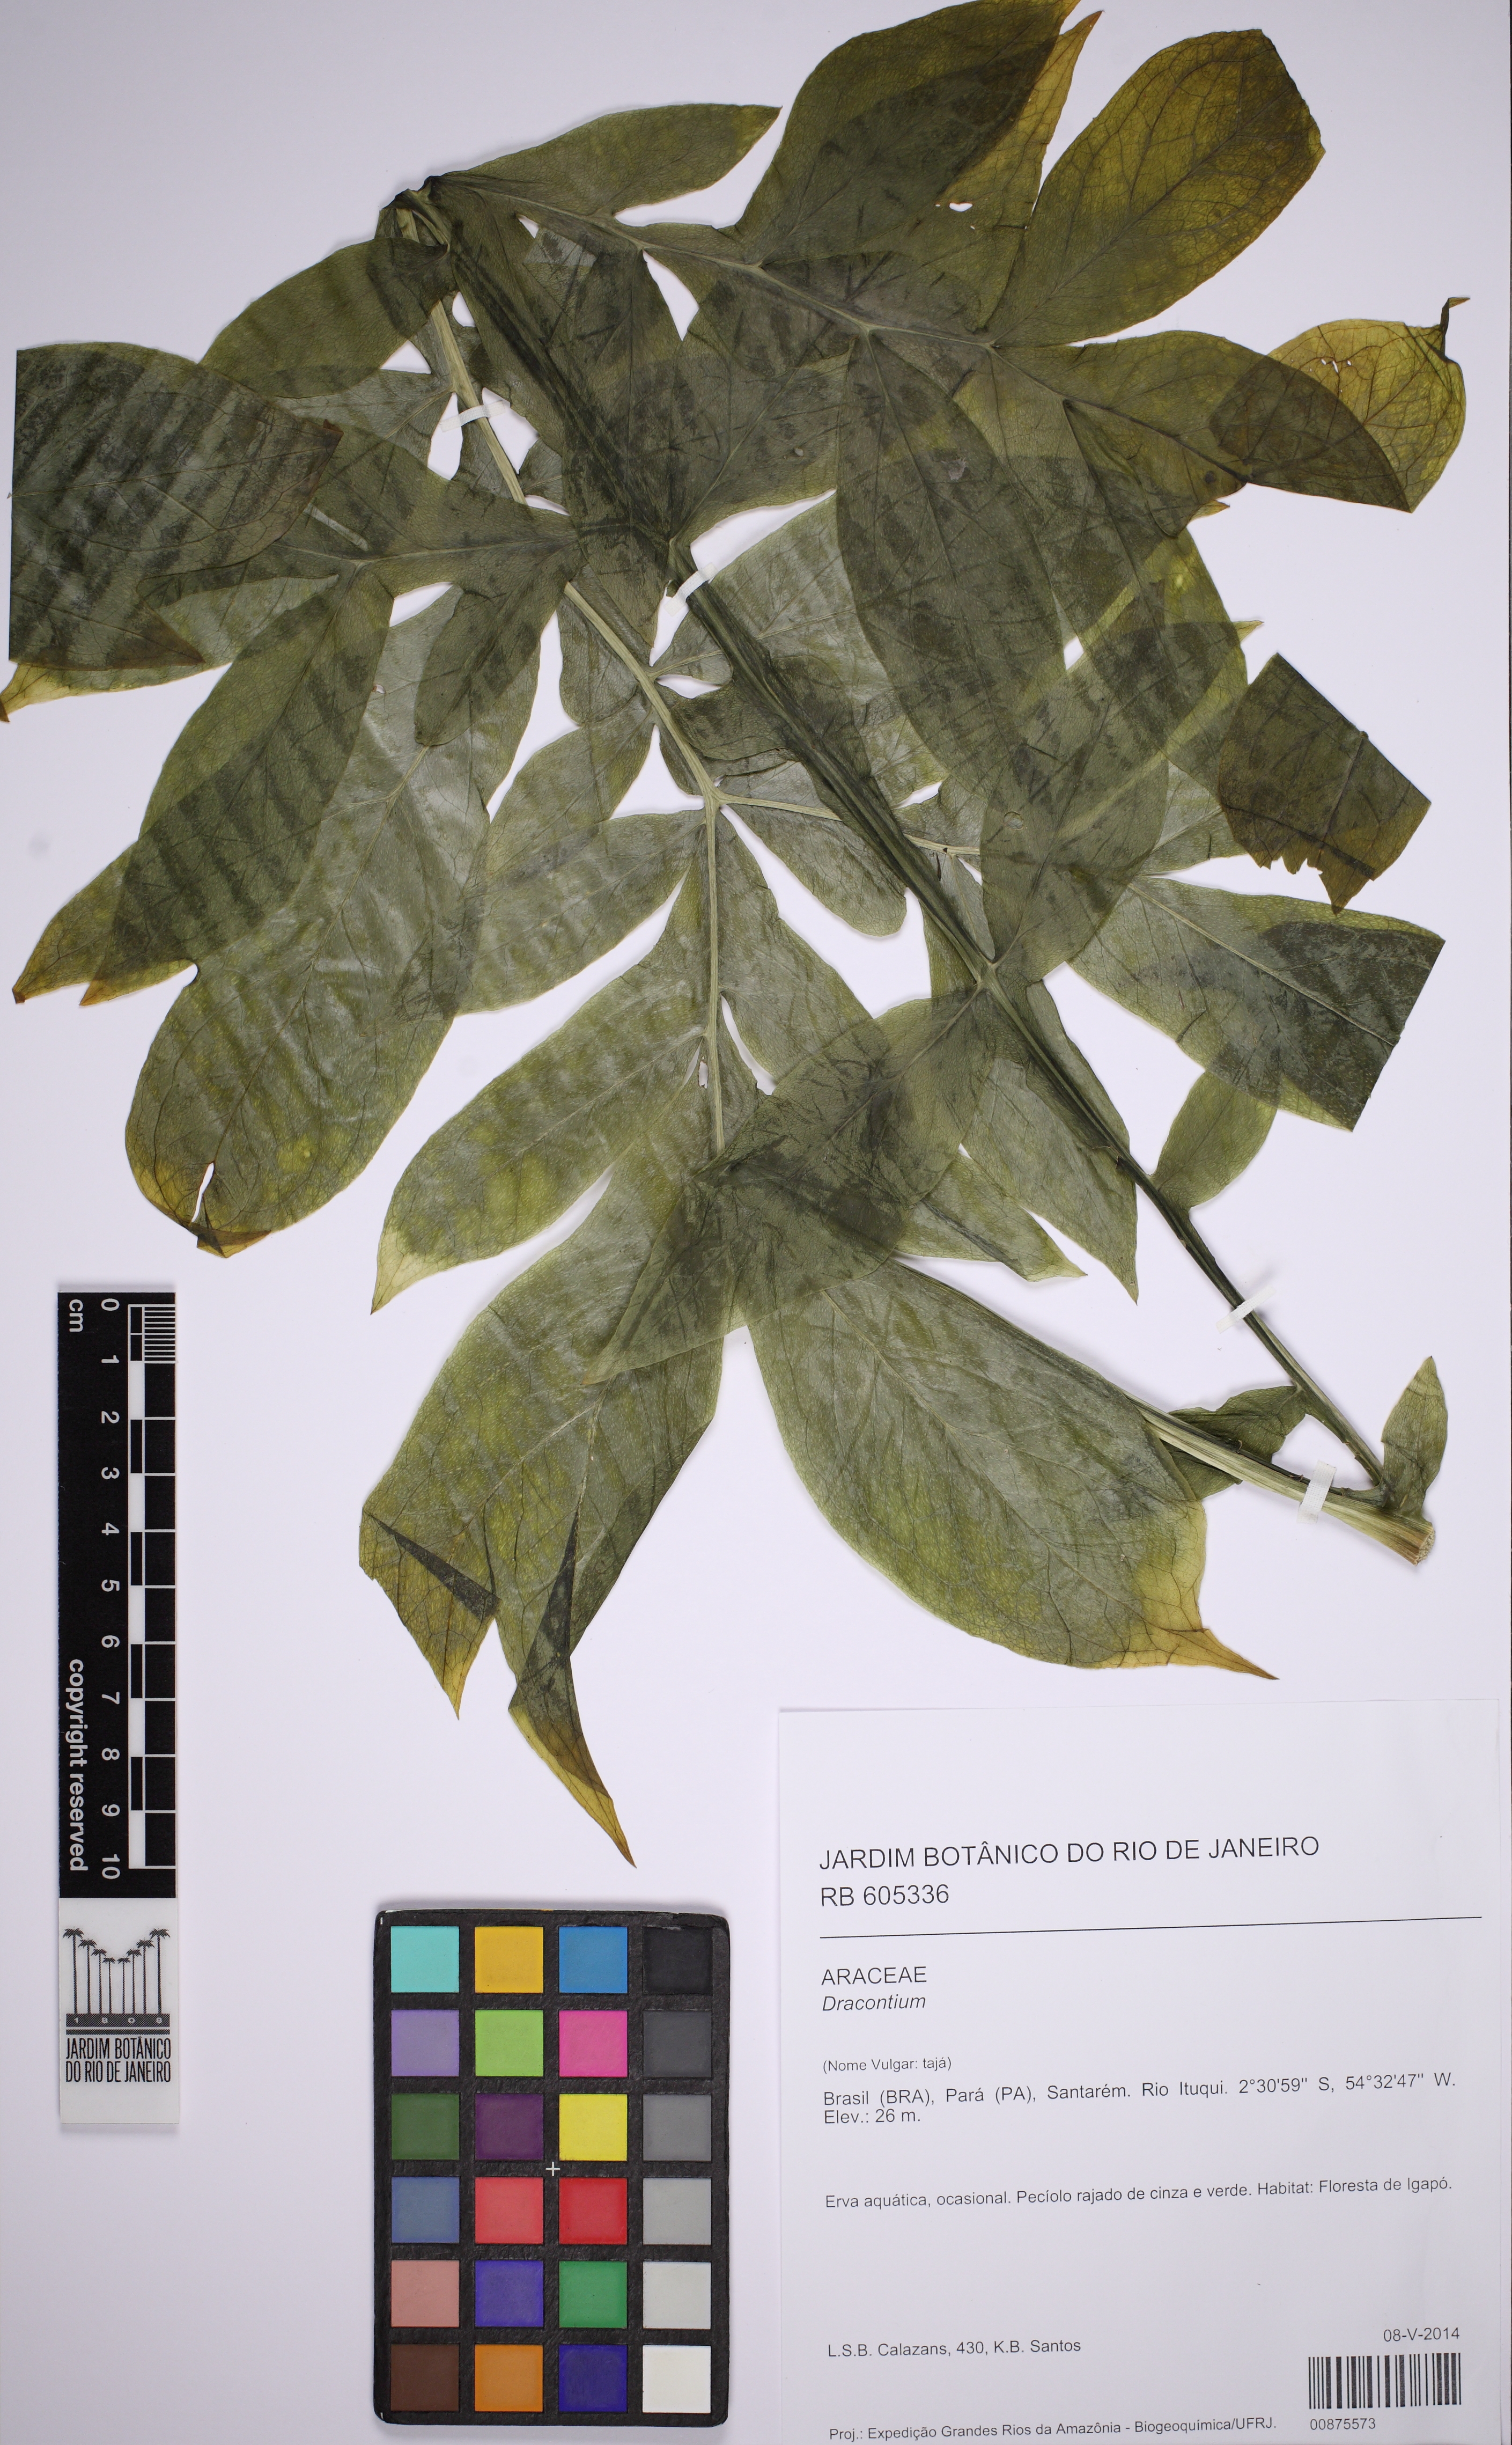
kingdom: Plantae
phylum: Tracheophyta
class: Liliopsida
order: Alismatales
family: Araceae
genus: Dracontium
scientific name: Dracontium
